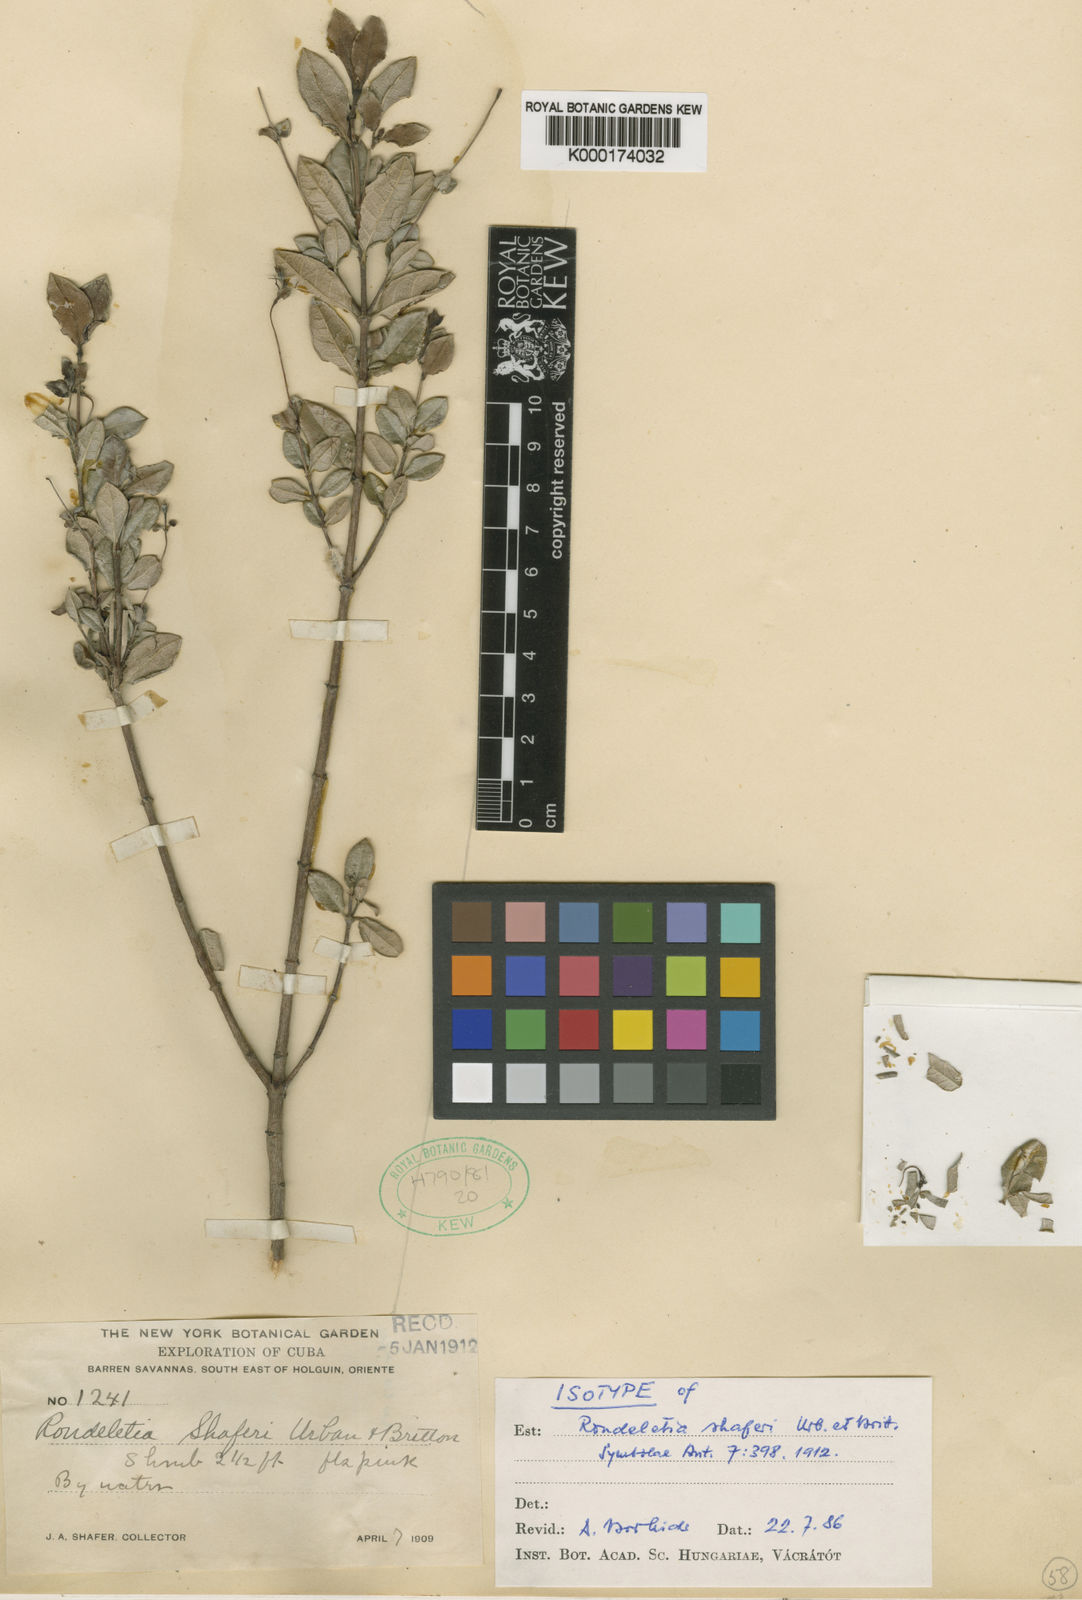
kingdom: Plantae
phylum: Tracheophyta
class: Magnoliopsida
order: Gentianales
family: Rubiaceae
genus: Rondeletia
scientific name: Rondeletia shaferi
